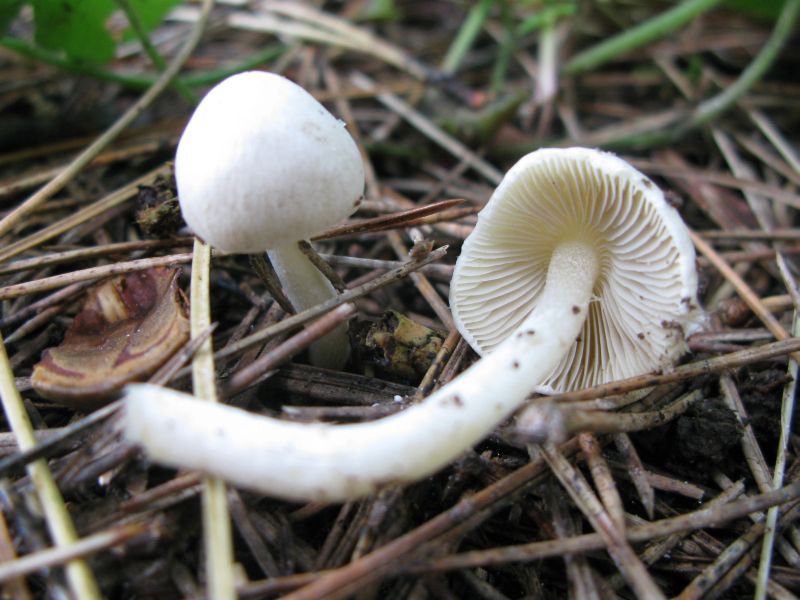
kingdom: Fungi
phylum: Basidiomycota
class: Agaricomycetes
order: Agaricales
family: Inocybaceae
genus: Inocybe
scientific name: Inocybe
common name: almindelig trævlhat
